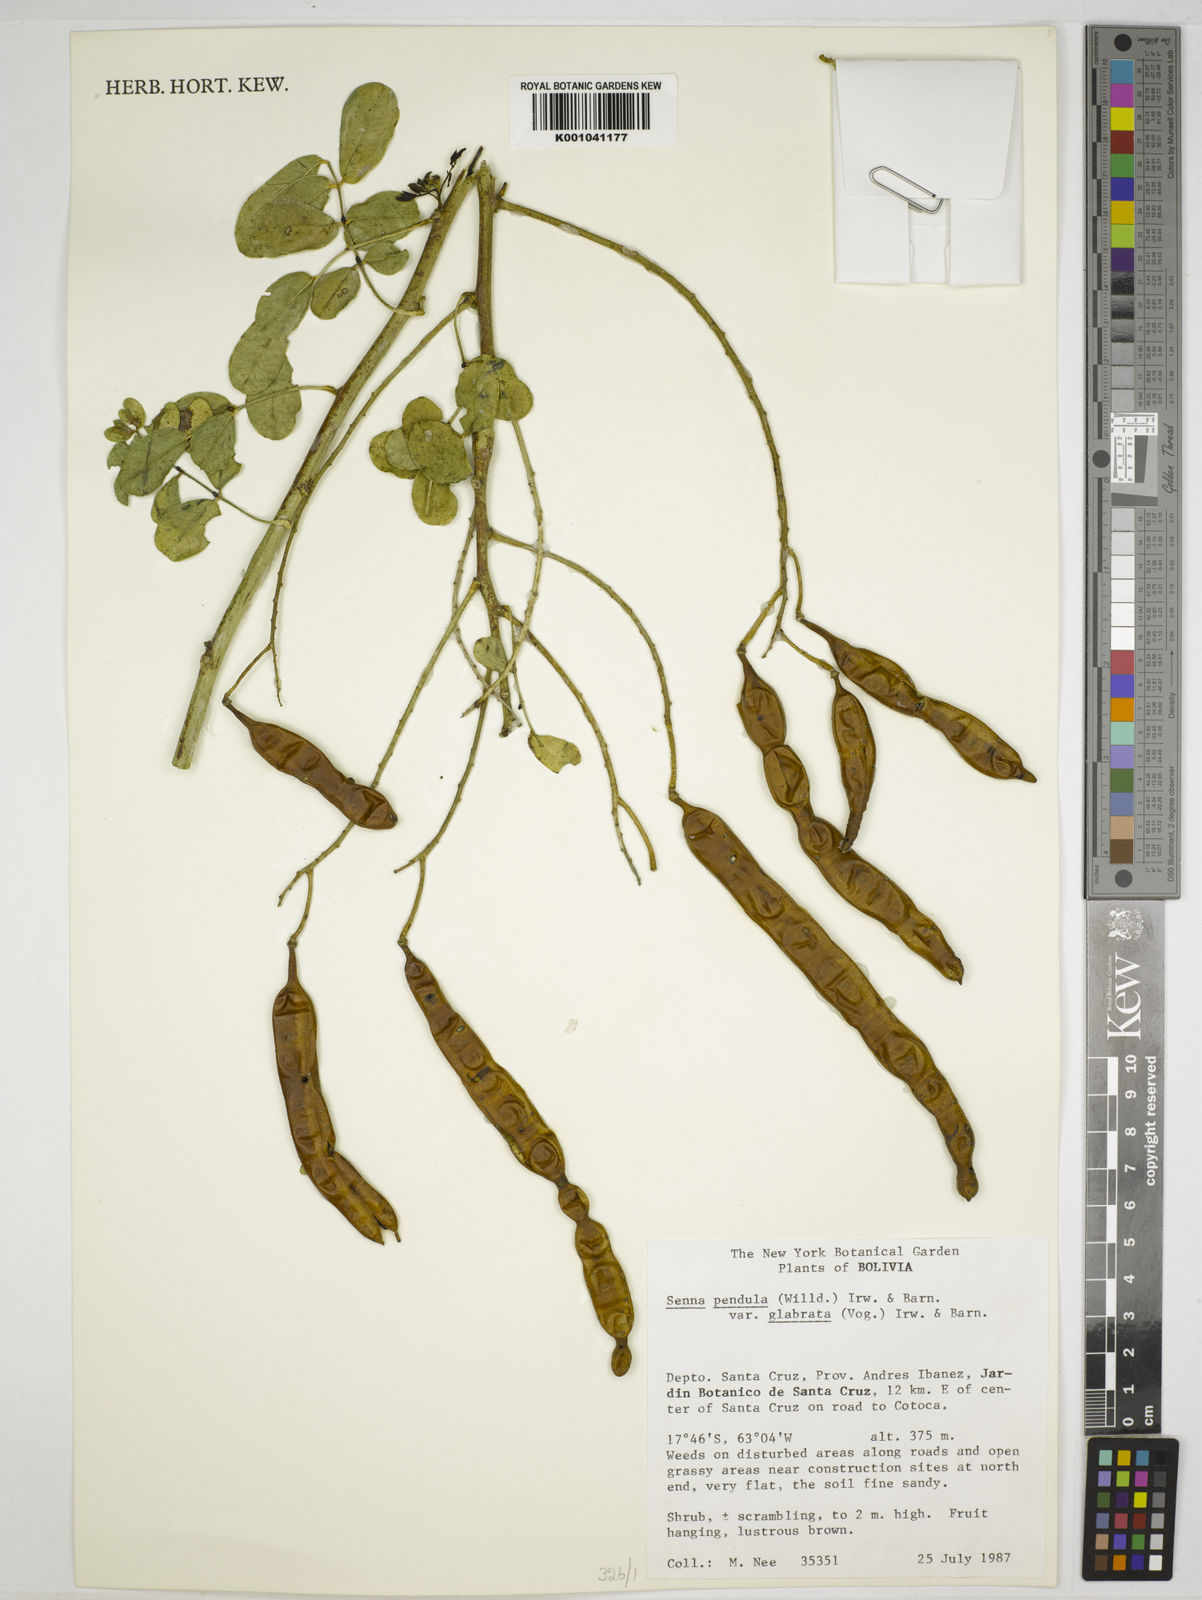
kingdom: Plantae
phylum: Tracheophyta
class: Magnoliopsida
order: Fabales
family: Fabaceae
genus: Senna
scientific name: Senna pendula
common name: Easter cassia
